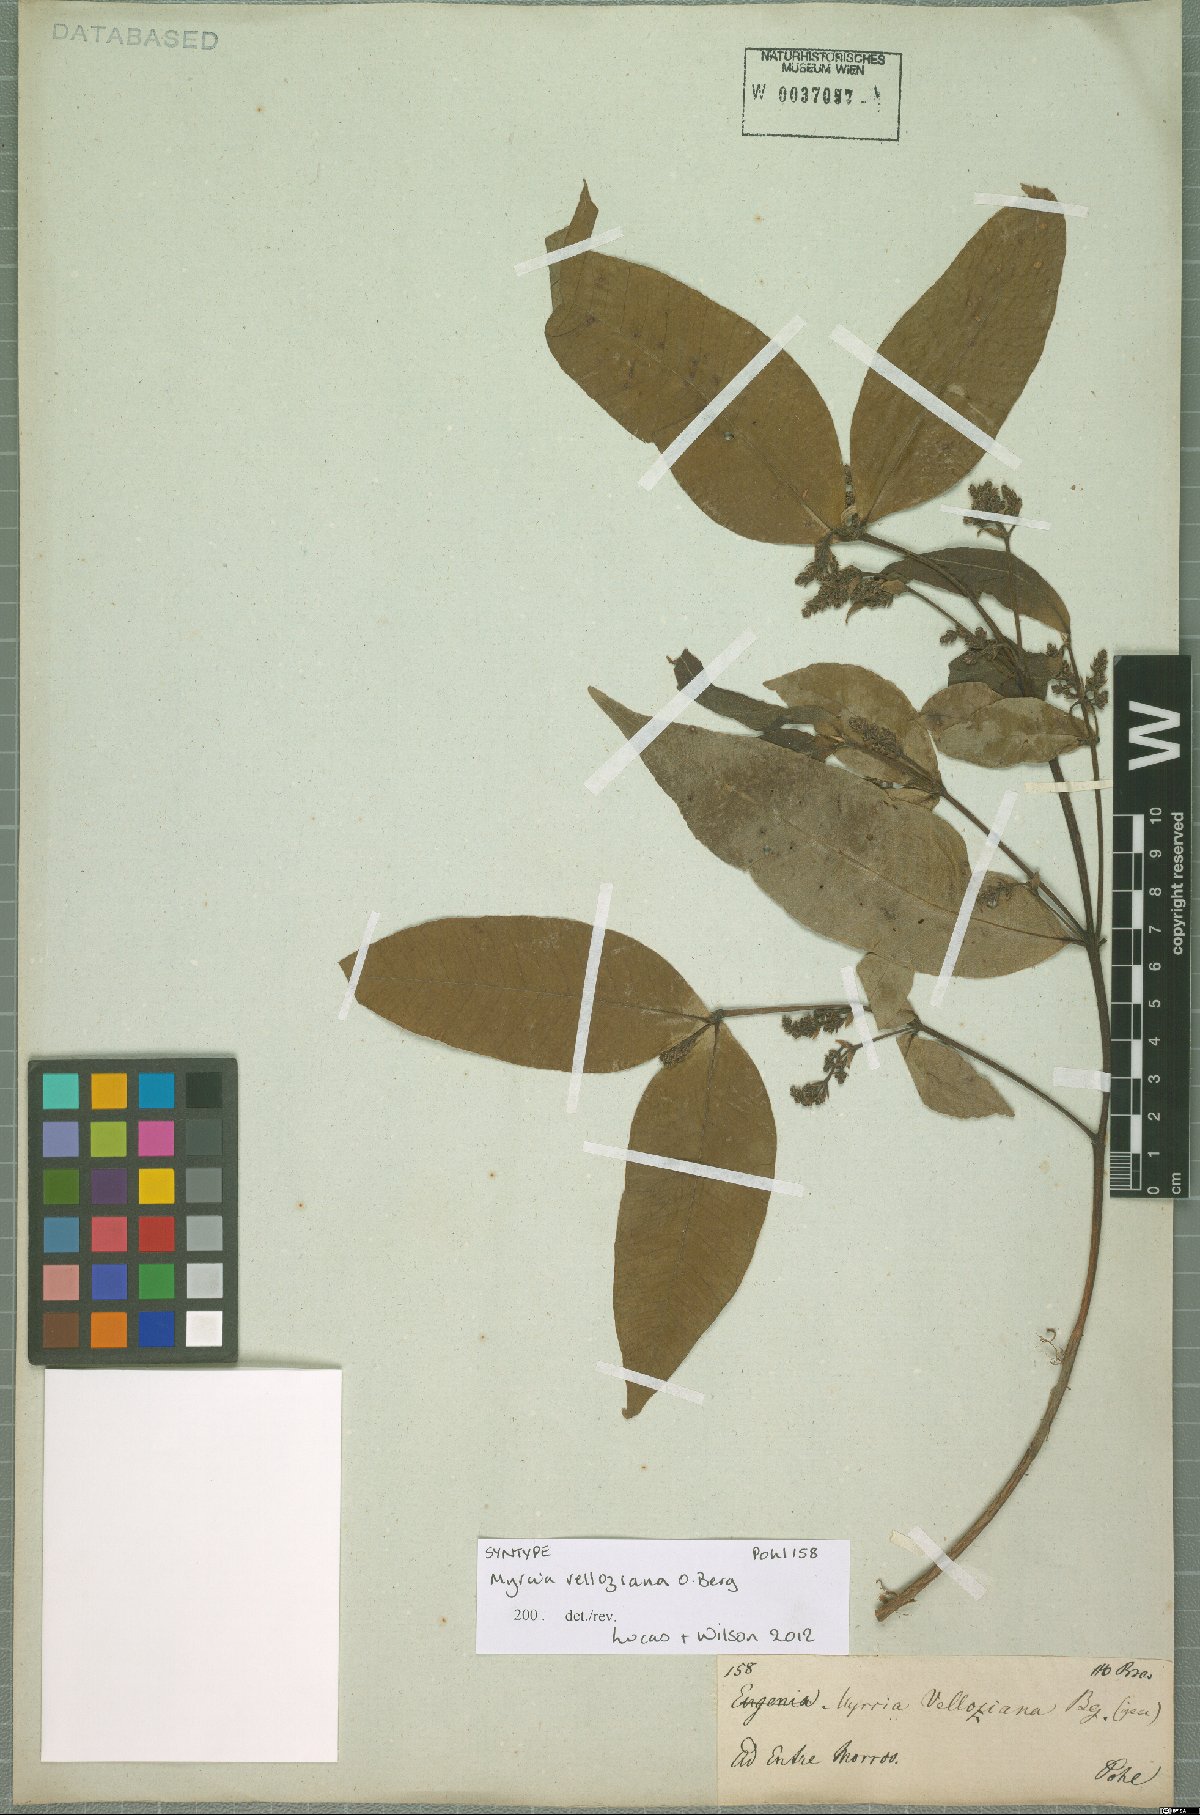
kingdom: Plantae
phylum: Tracheophyta
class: Magnoliopsida
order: Myrtales
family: Myrtaceae
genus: Myrcia
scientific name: Myrcia velloziana
